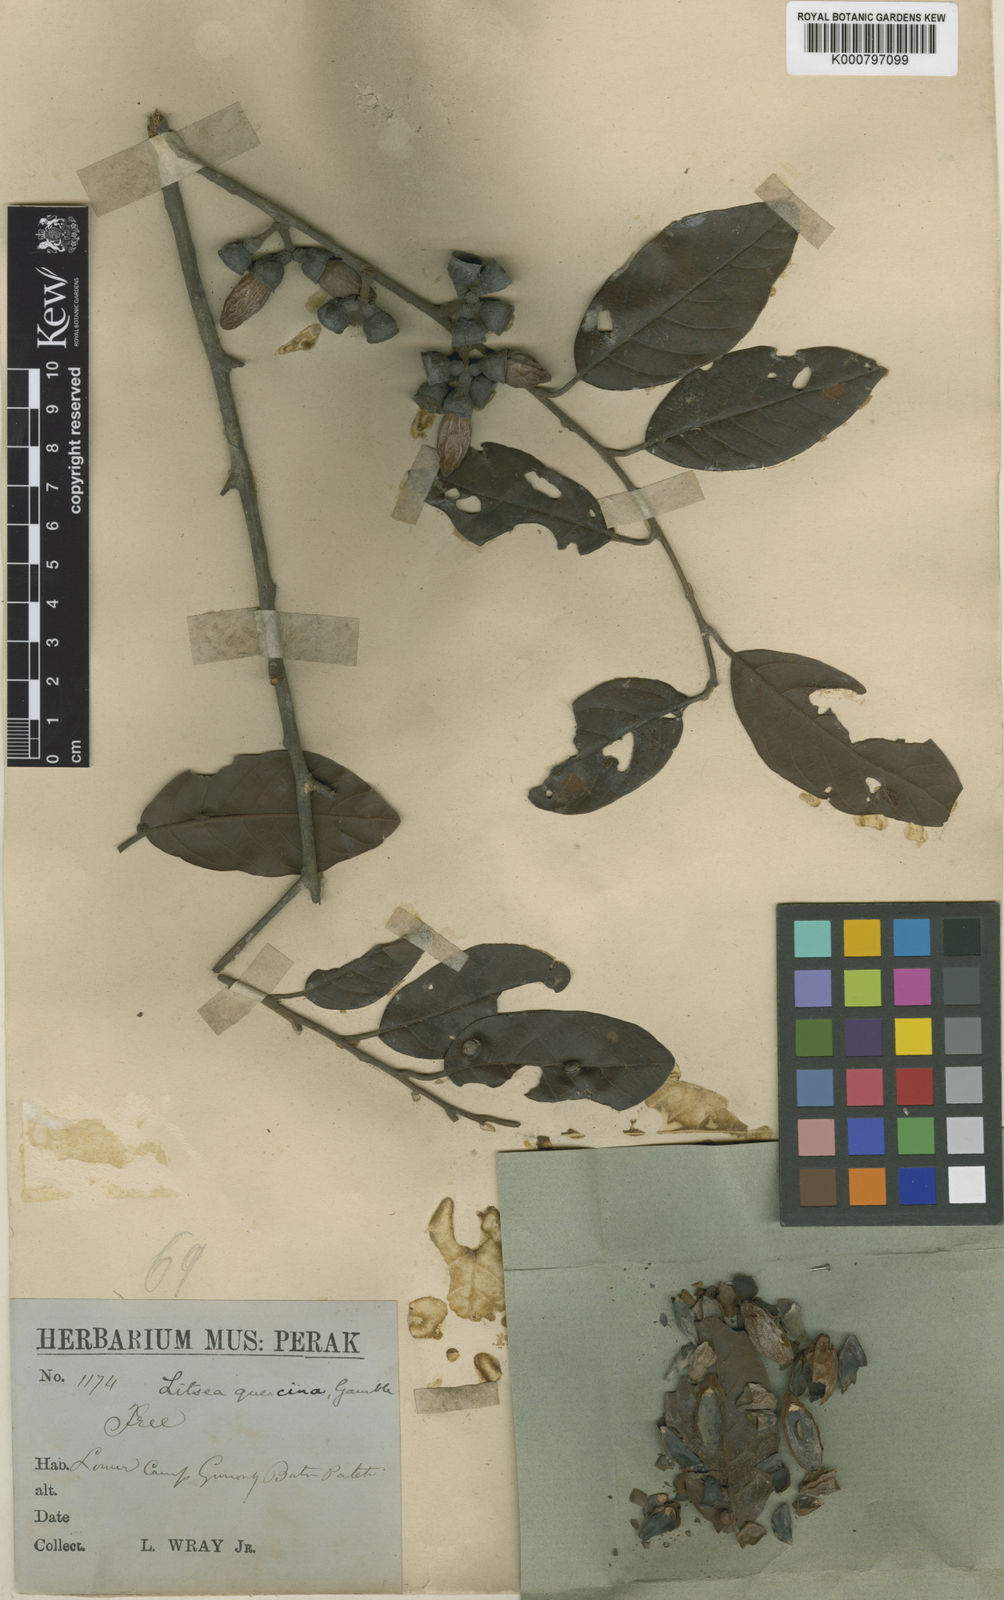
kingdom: Plantae
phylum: Tracheophyta
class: Magnoliopsida
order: Laurales
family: Lauraceae
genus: Litsea
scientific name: Litsea umbellata
